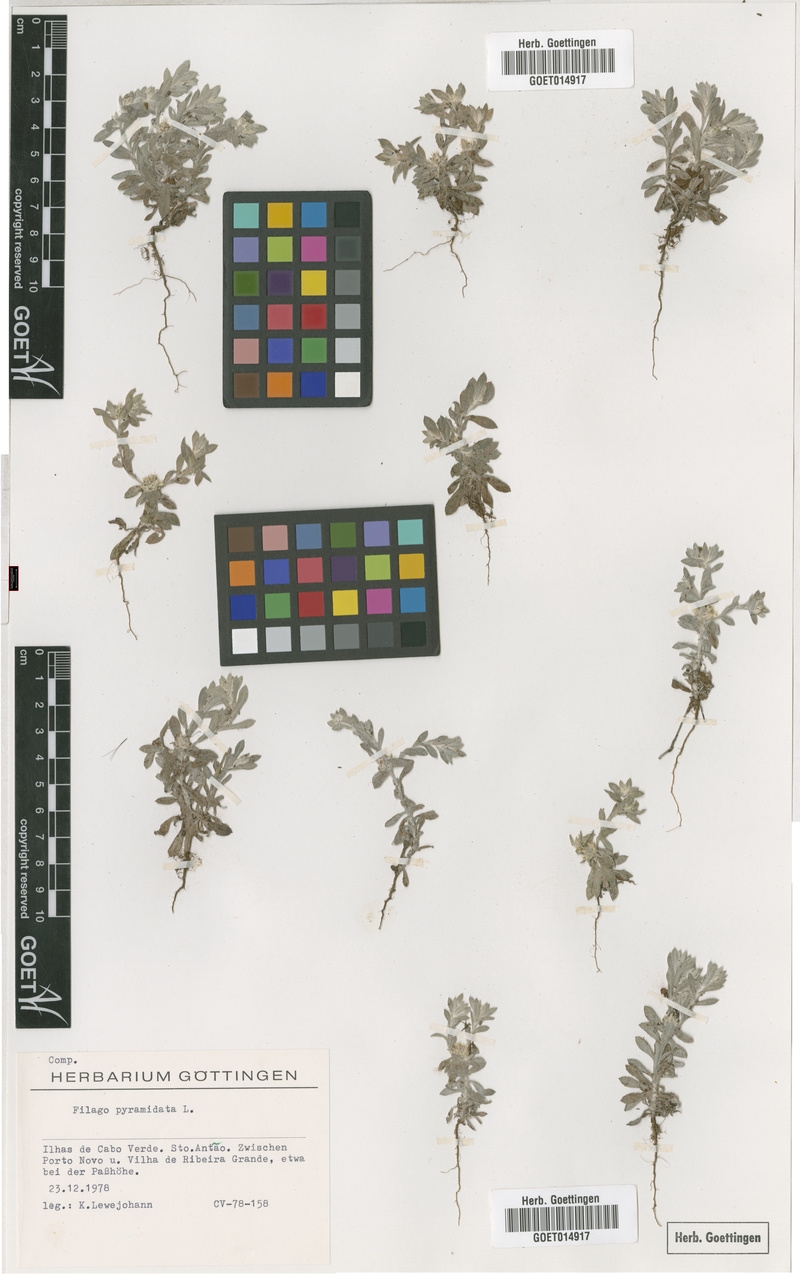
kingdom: Plantae
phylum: Tracheophyta
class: Magnoliopsida
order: Asterales
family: Asteraceae
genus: Filago
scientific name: Filago pyramidata
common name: Broad-leaved cudweed
